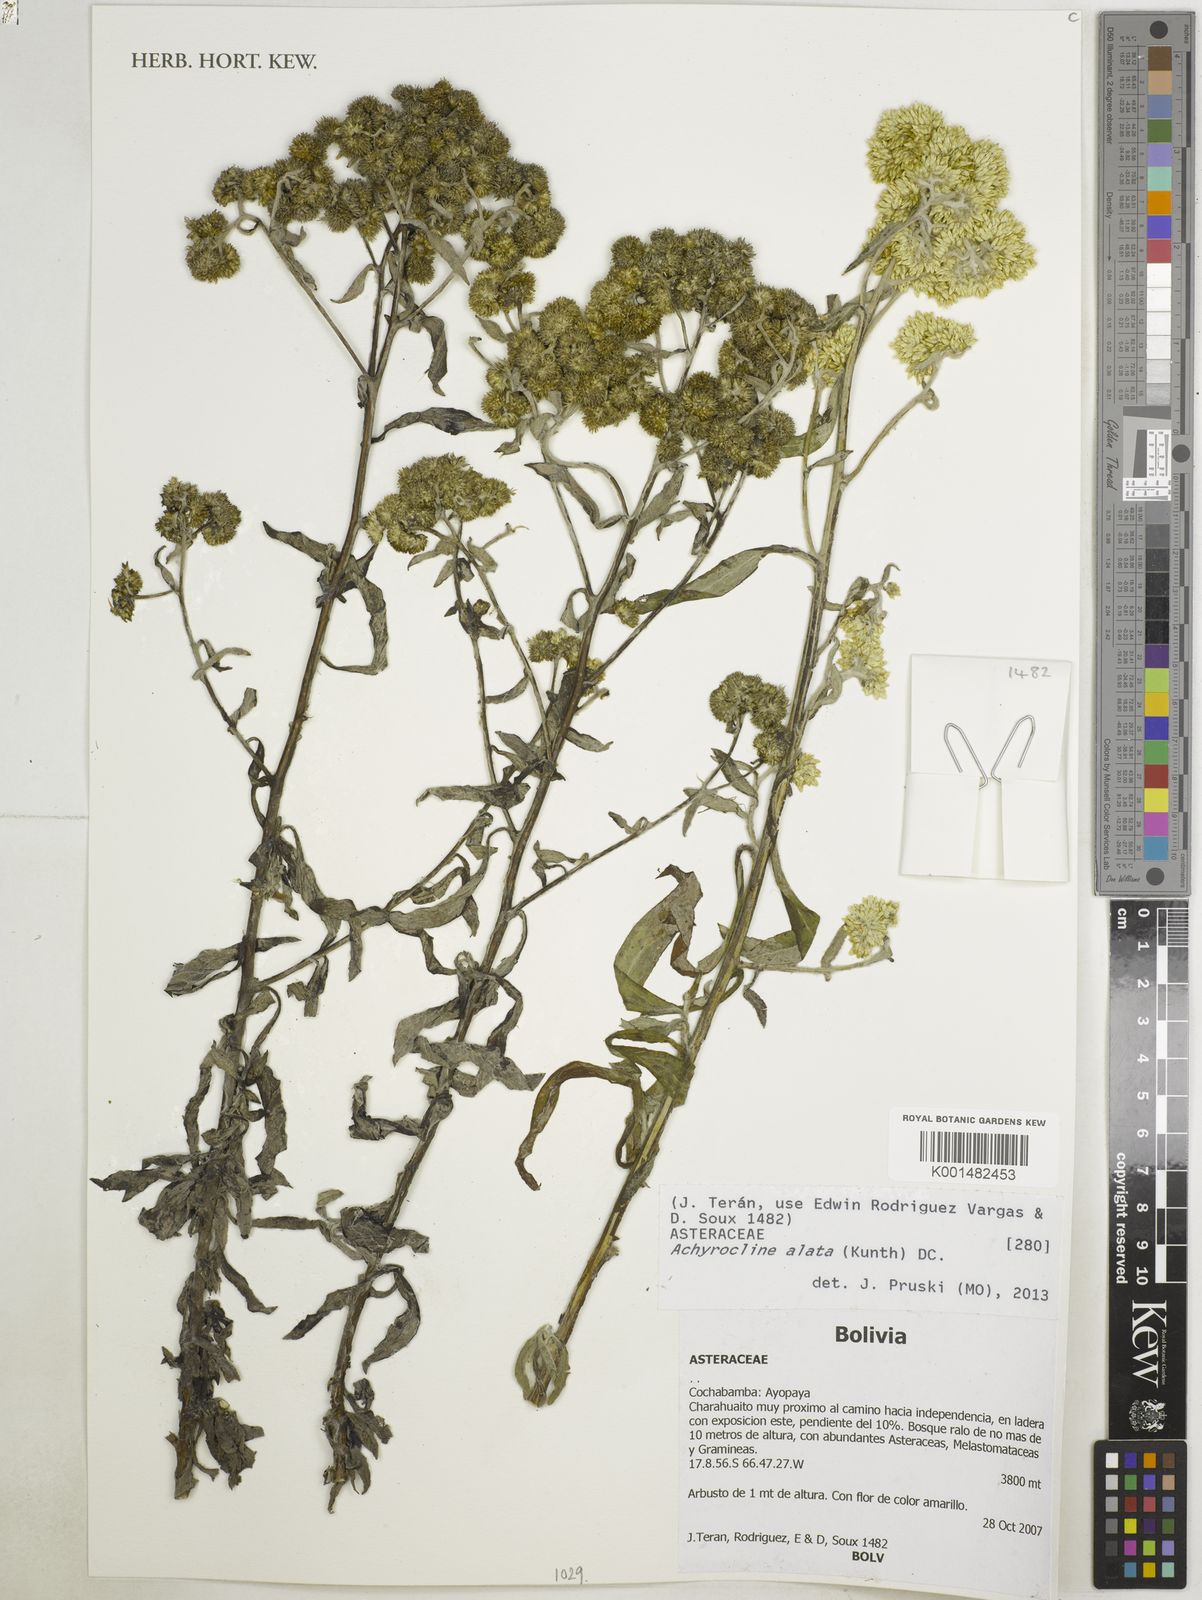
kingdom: Plantae
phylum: Tracheophyta
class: Magnoliopsida
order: Asterales
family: Asteraceae
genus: Achyrocline
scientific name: Achyrocline alata
